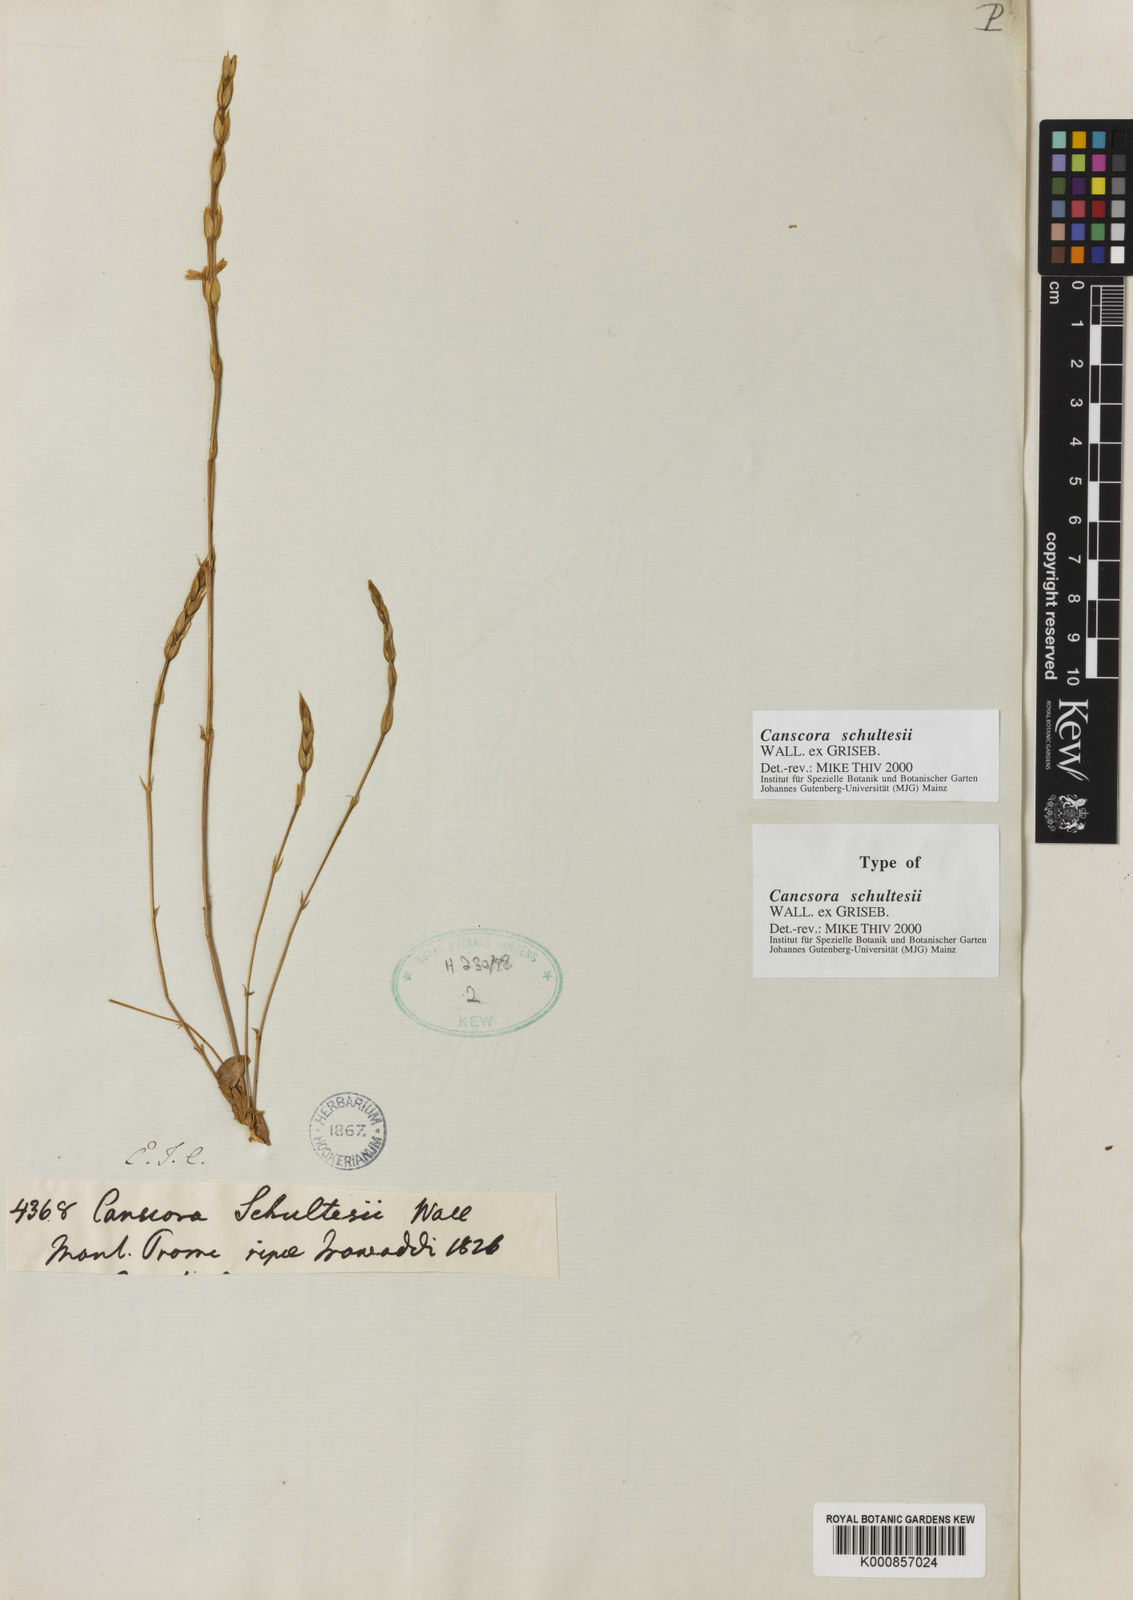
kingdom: Plantae
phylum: Tracheophyta
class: Magnoliopsida
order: Gentianales
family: Gentianaceae
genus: Canscora
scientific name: Canscora schultesii
